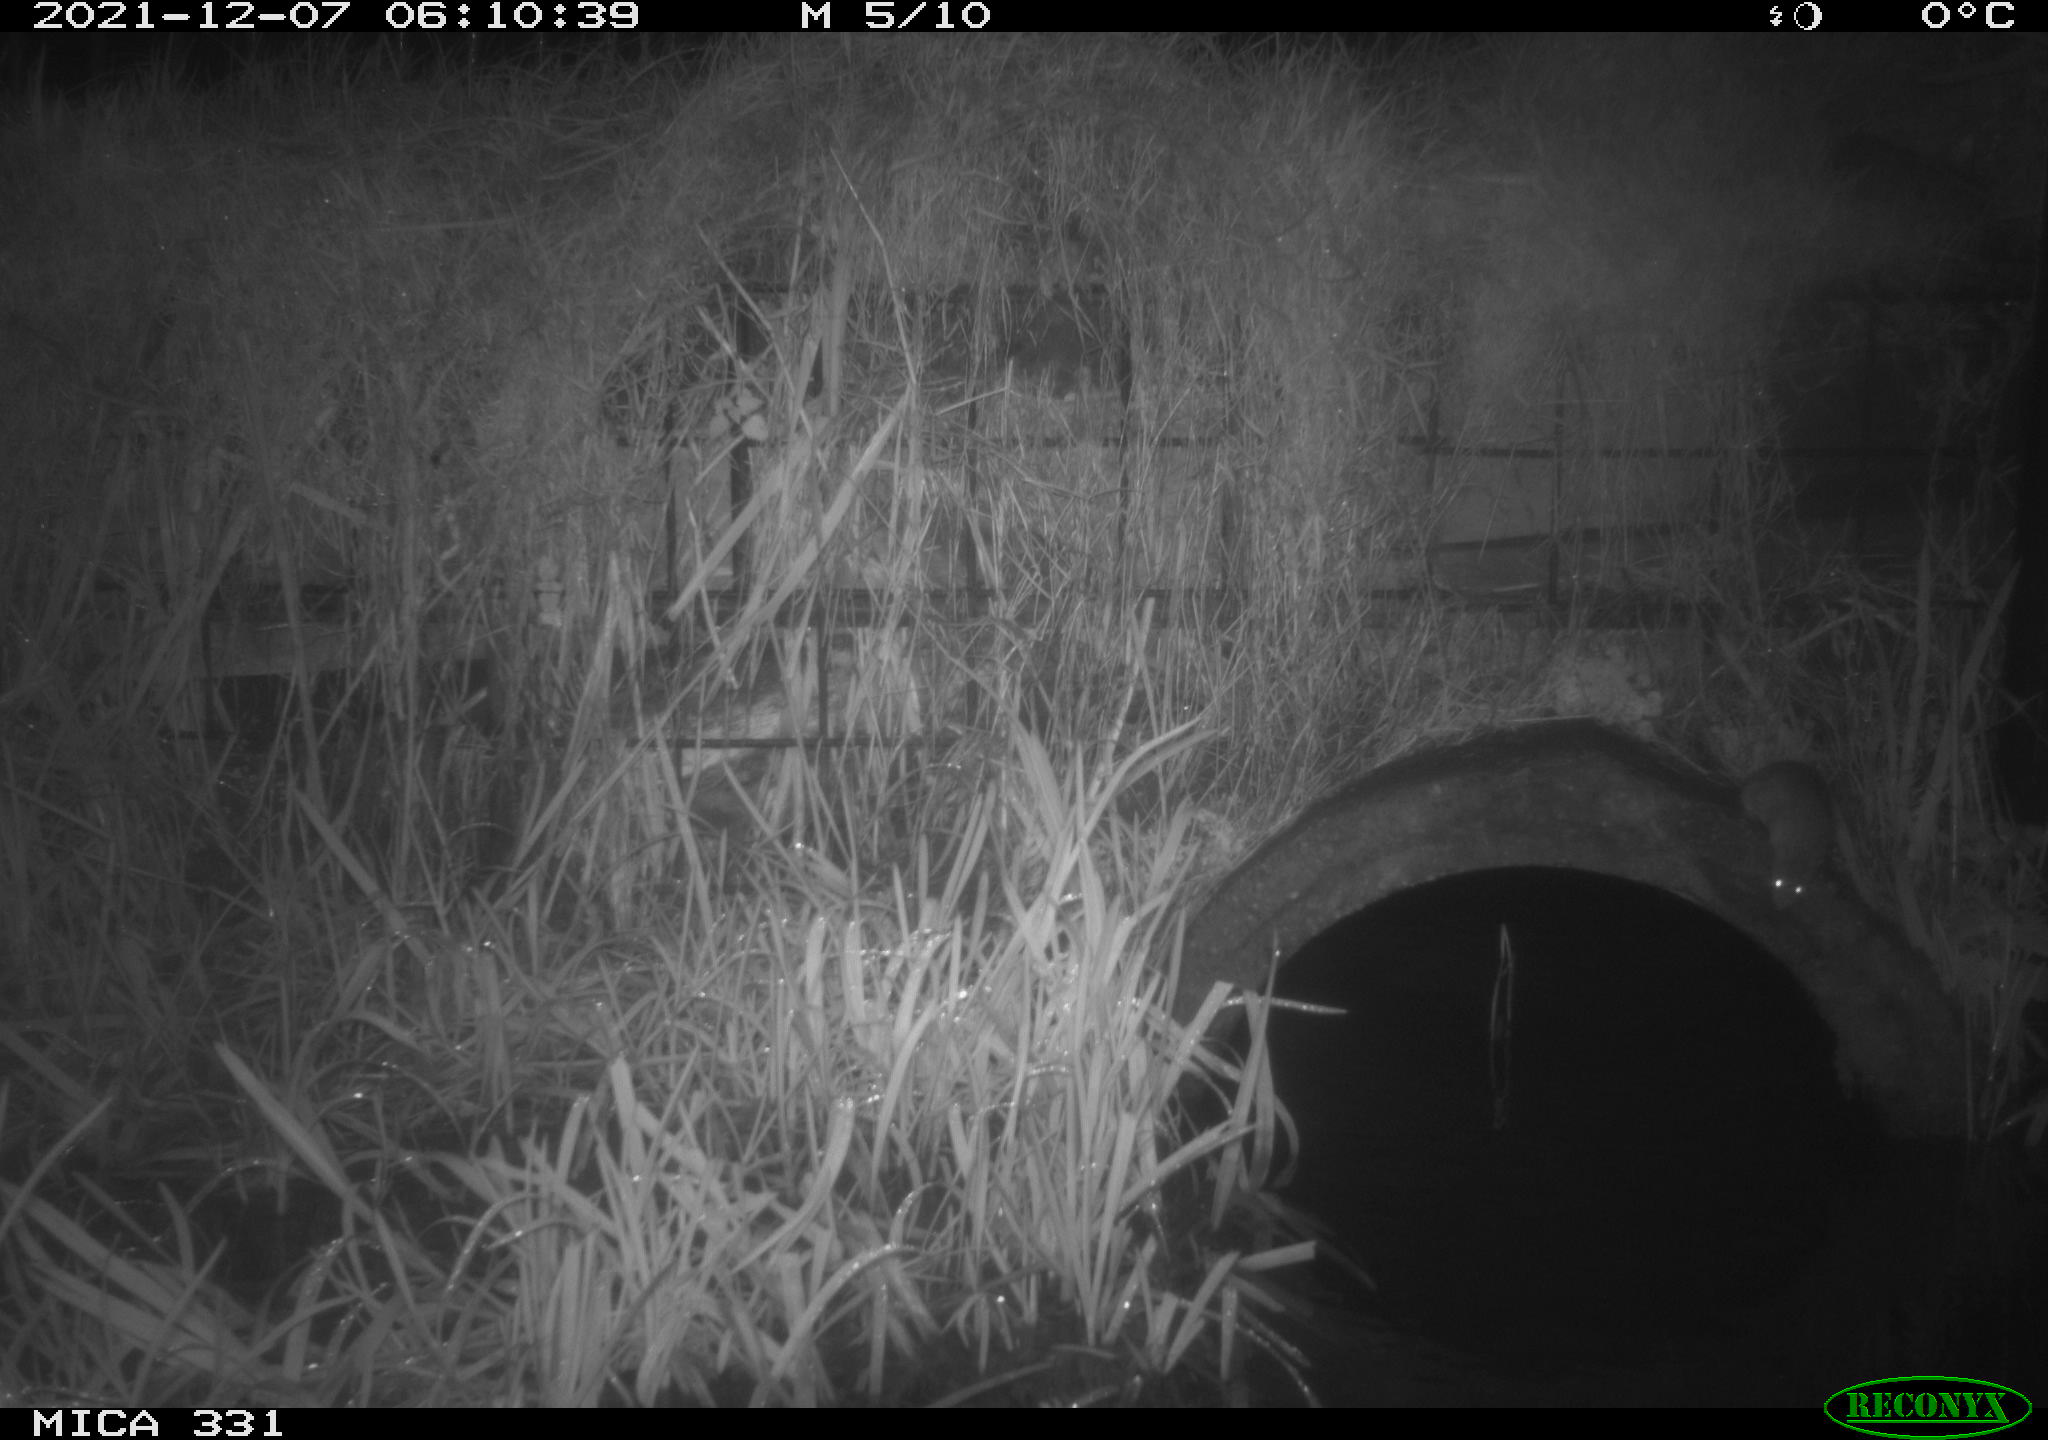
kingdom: Animalia
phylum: Chordata
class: Mammalia
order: Rodentia
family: Muridae
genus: Rattus
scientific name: Rattus norvegicus
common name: Brown rat
